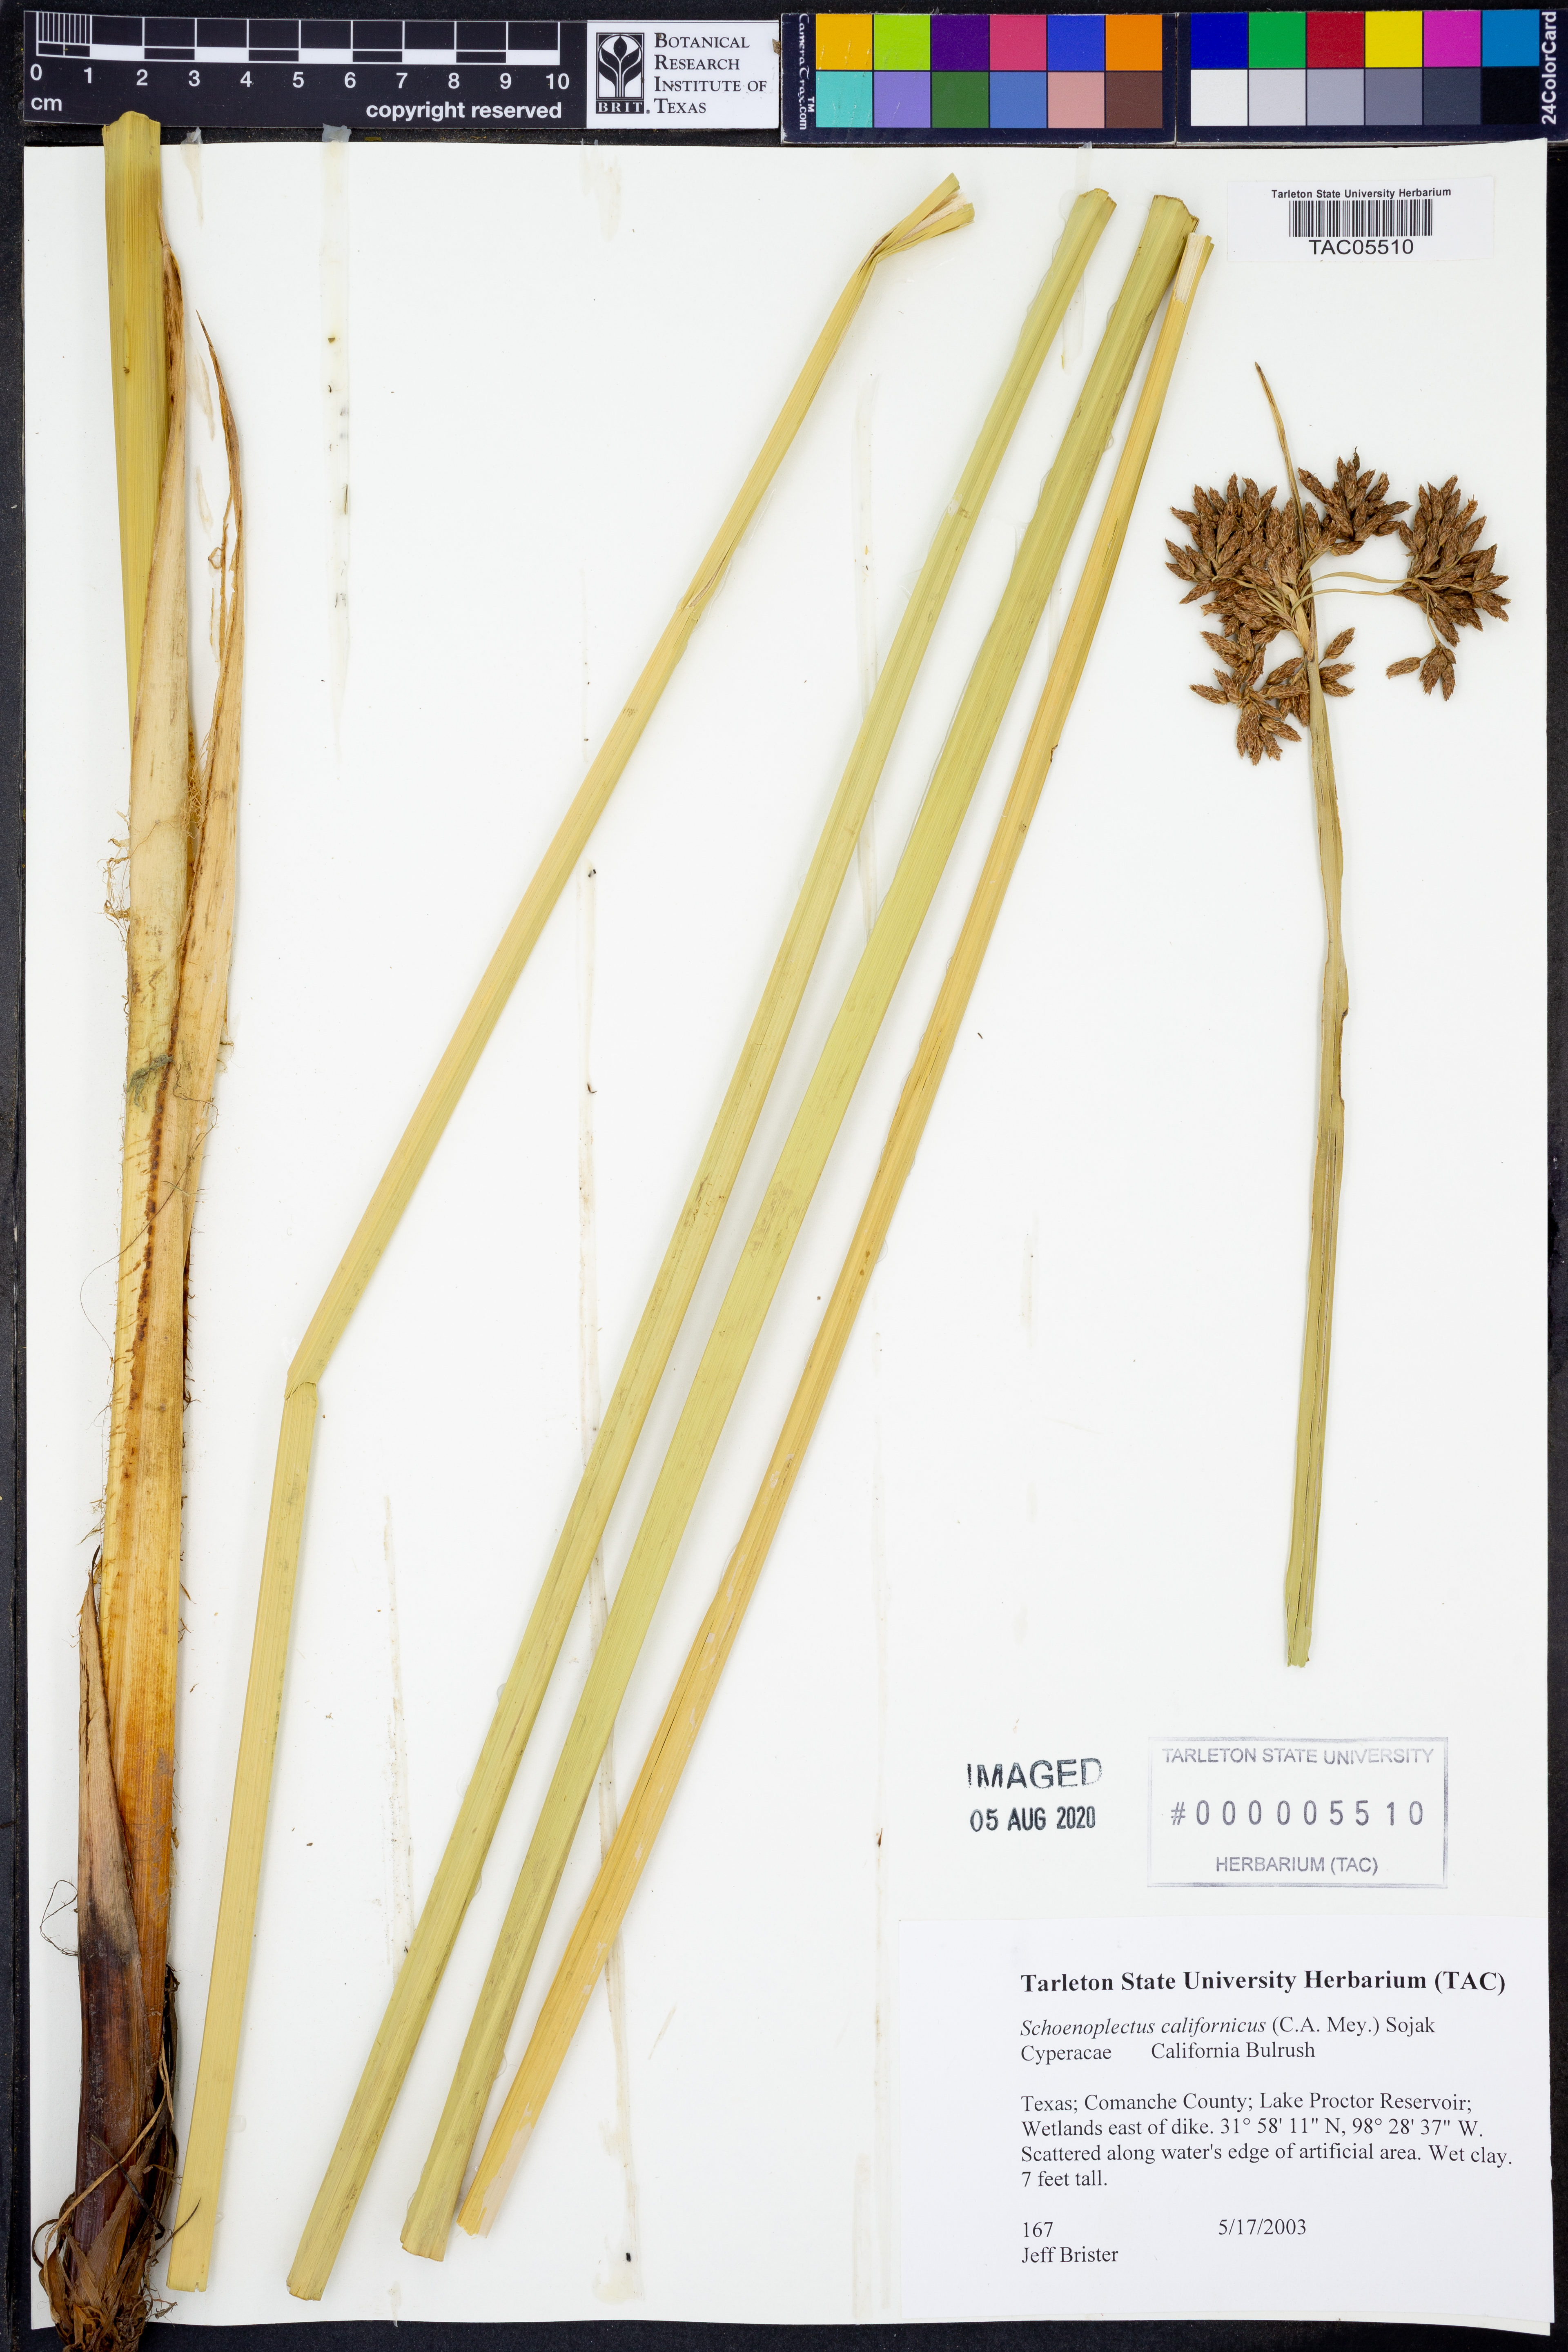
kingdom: Plantae
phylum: Tracheophyta
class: Liliopsida
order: Poales
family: Cyperaceae
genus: Schoenoplectus
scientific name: Schoenoplectus californicus
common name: California bulrush
